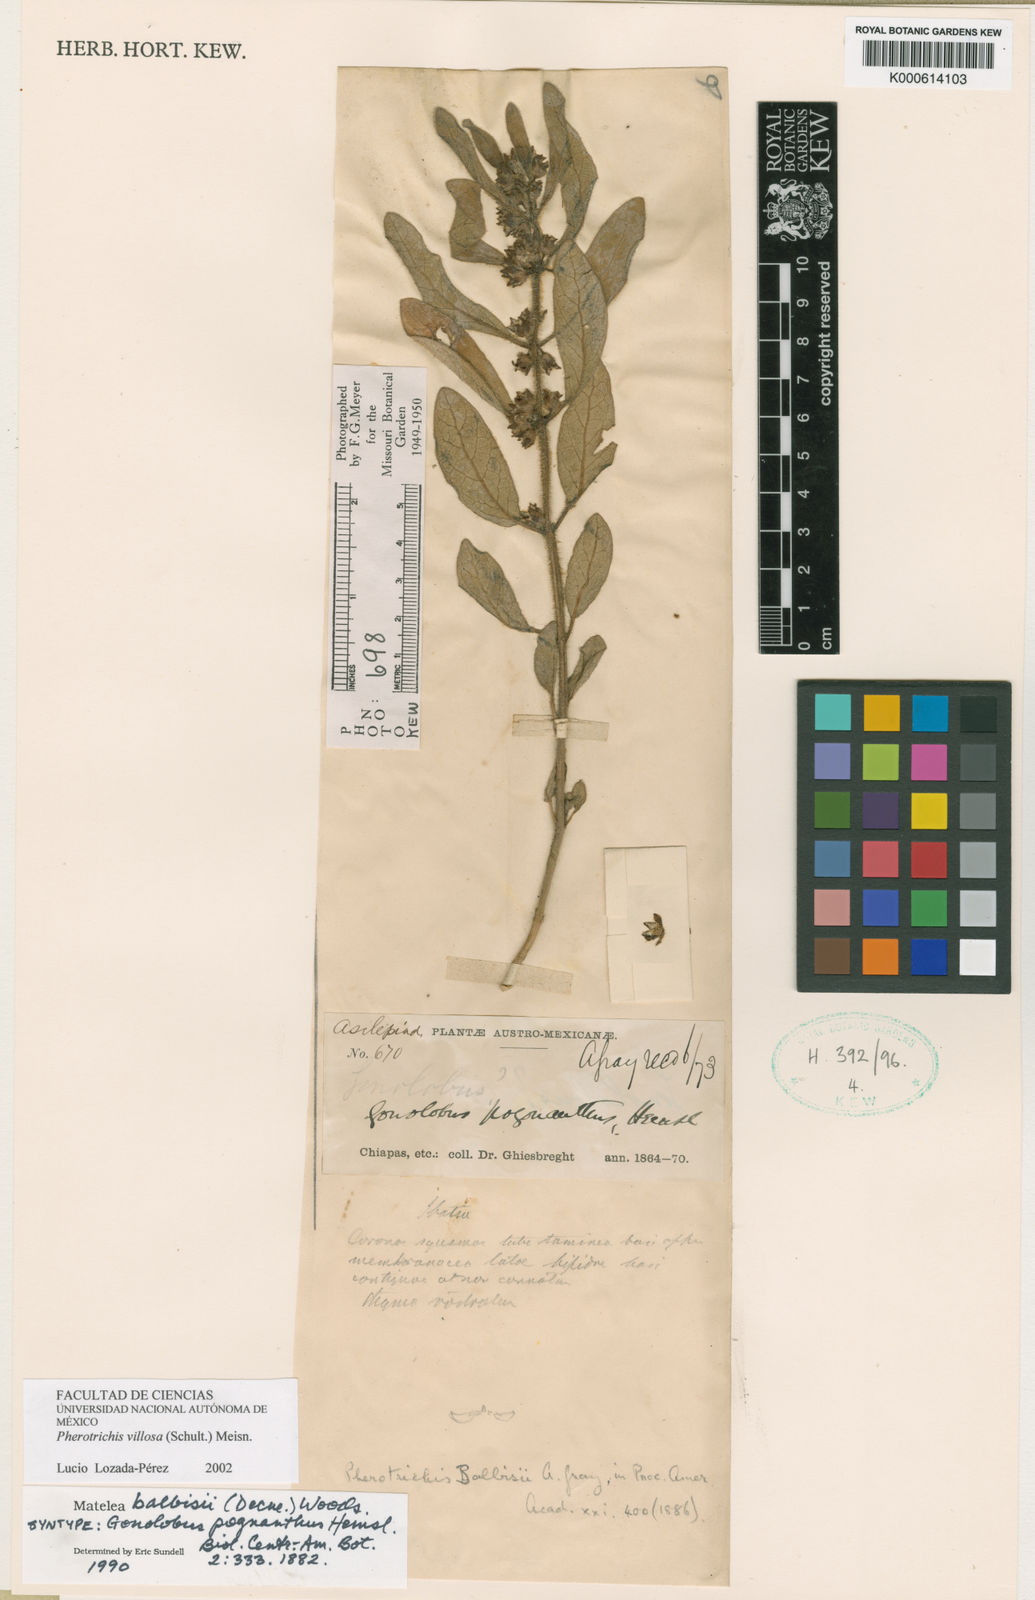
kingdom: Plantae
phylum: Tracheophyta
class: Magnoliopsida
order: Gentianales
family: Apocynaceae
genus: Pherotrichis
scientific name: Pherotrichis villosa
